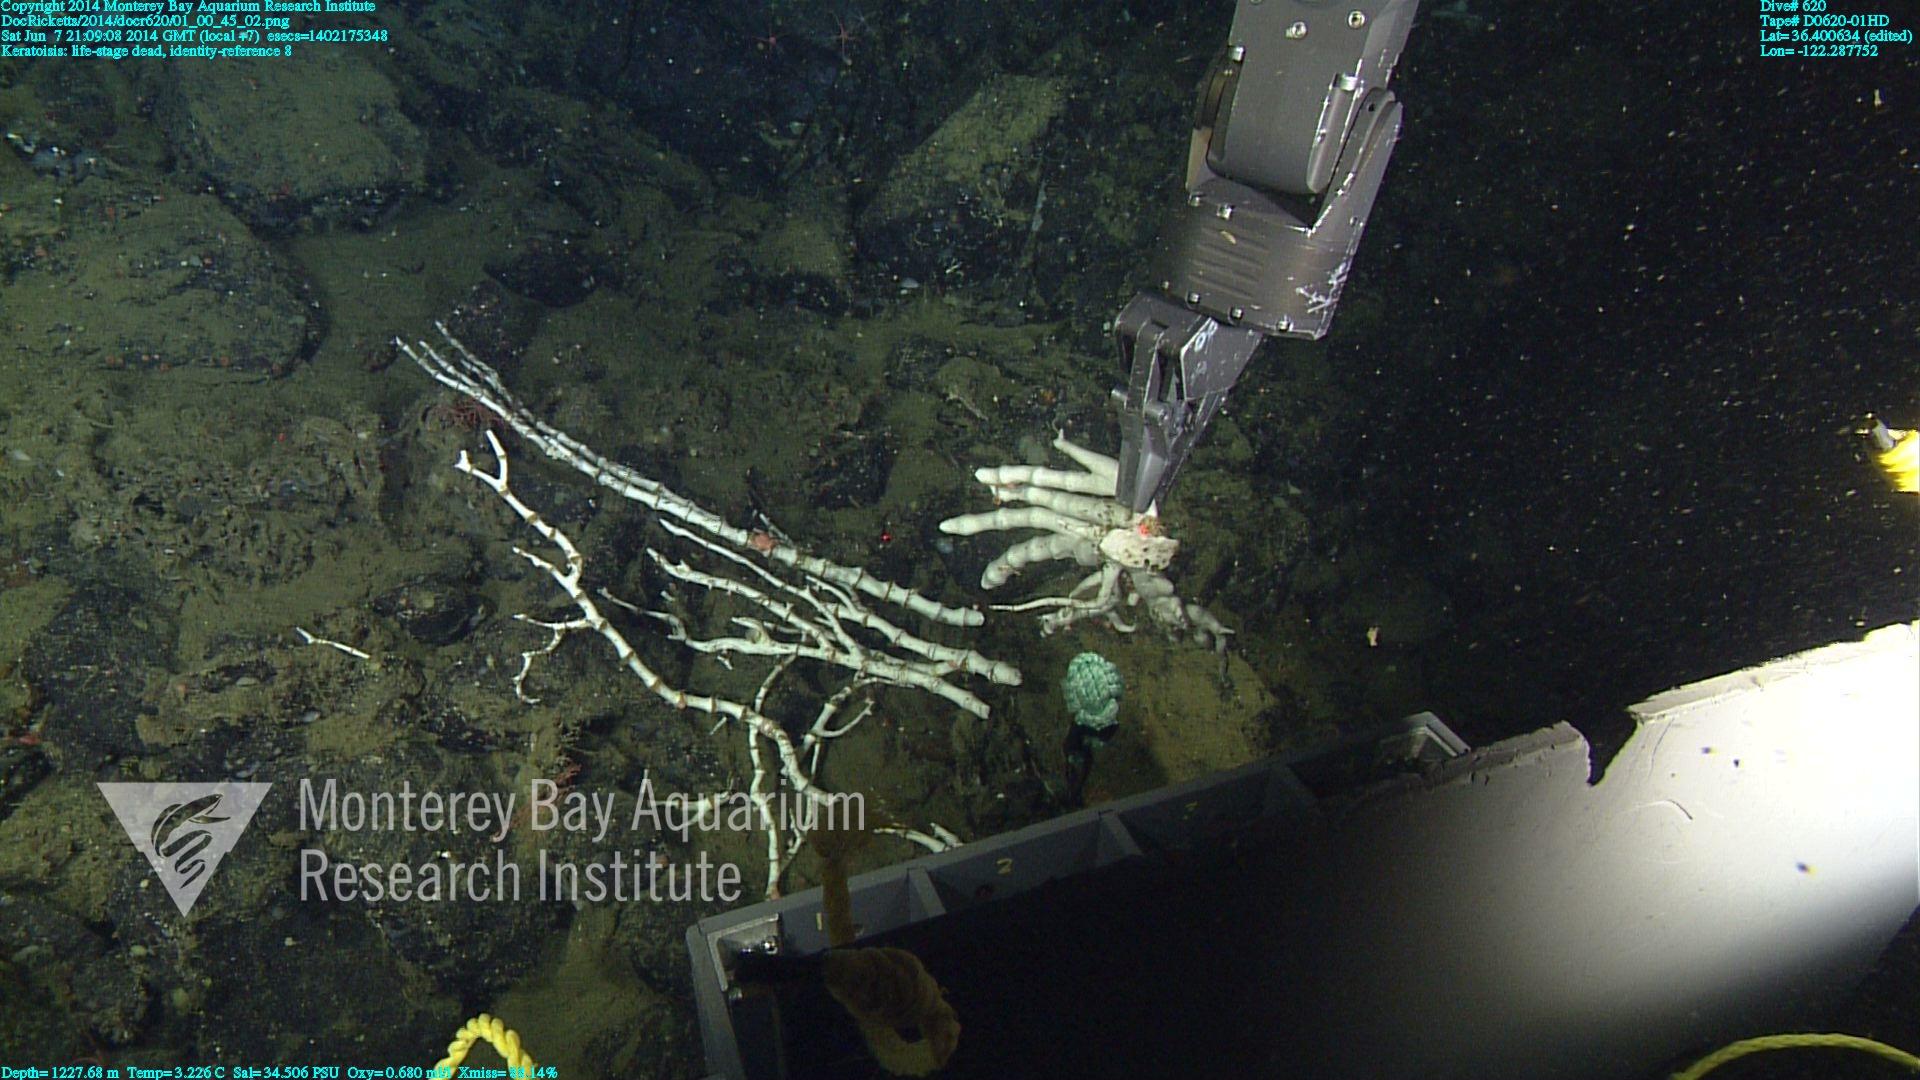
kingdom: Animalia
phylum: Cnidaria
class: Anthozoa
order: Scleralcyonacea
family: Keratoisididae
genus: Keratoisis
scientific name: Keratoisis
